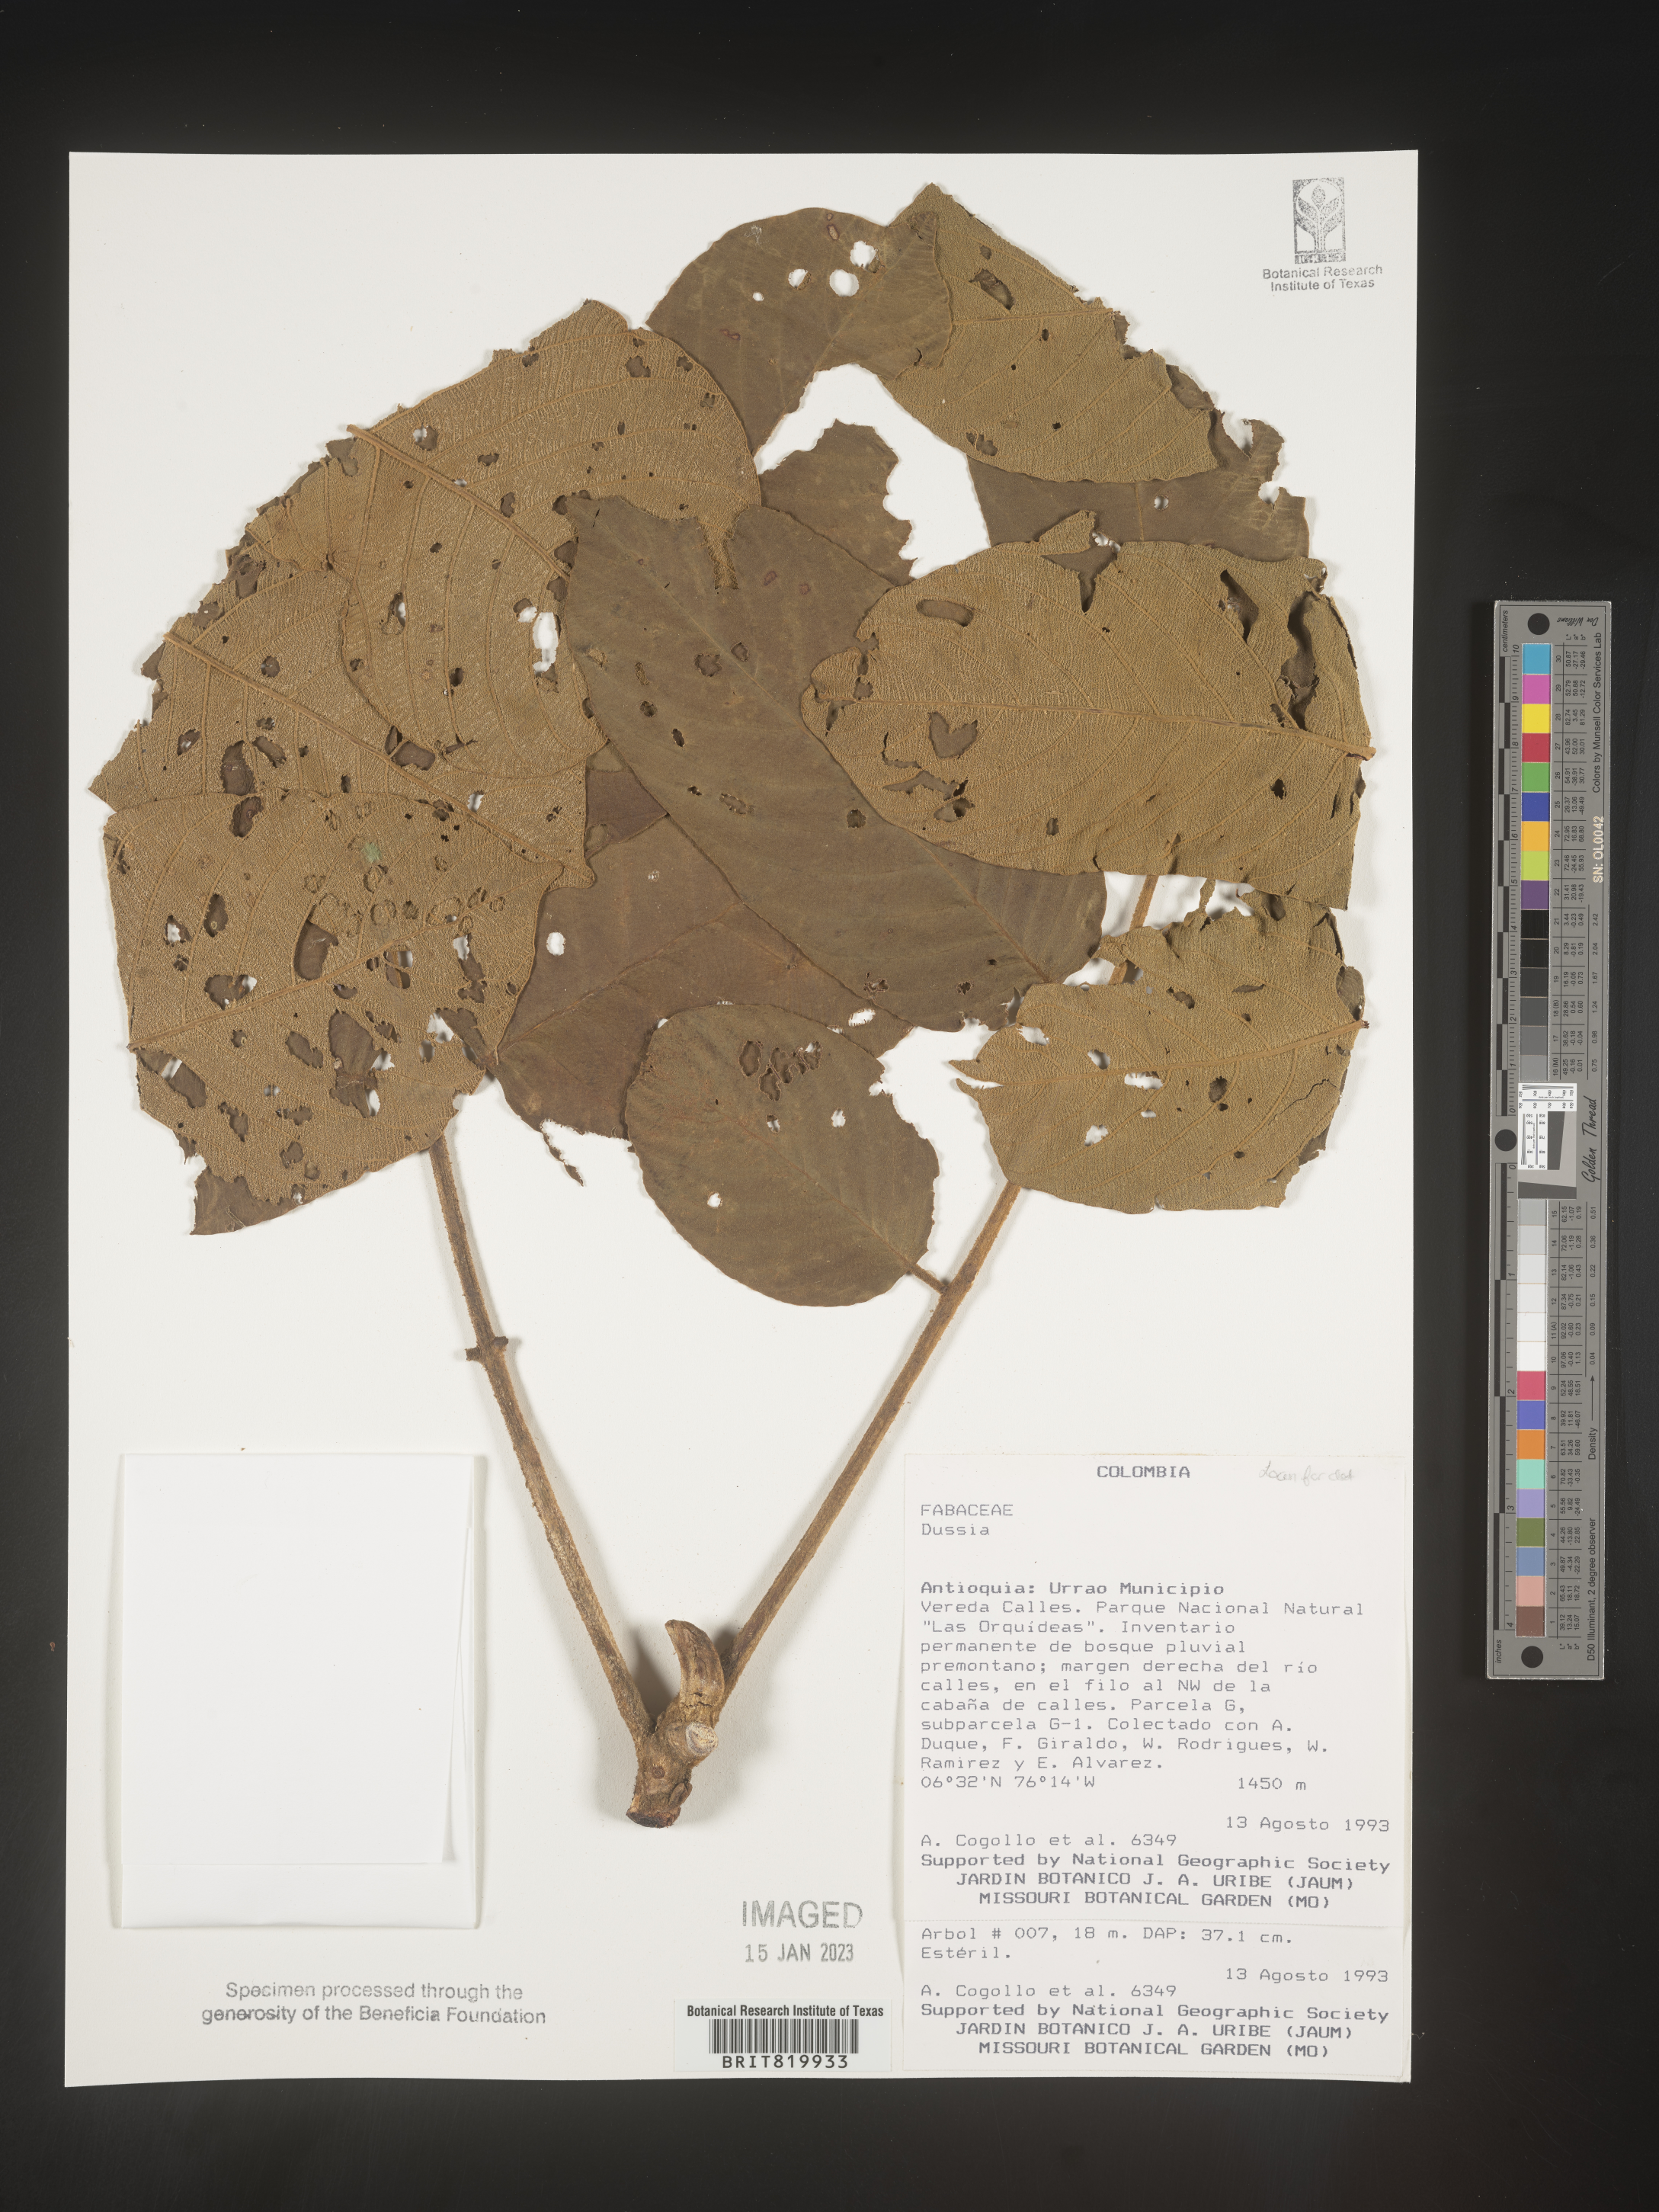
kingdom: Plantae
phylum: Tracheophyta
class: Magnoliopsida
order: Fabales
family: Fabaceae
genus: Dussia
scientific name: Dussia
